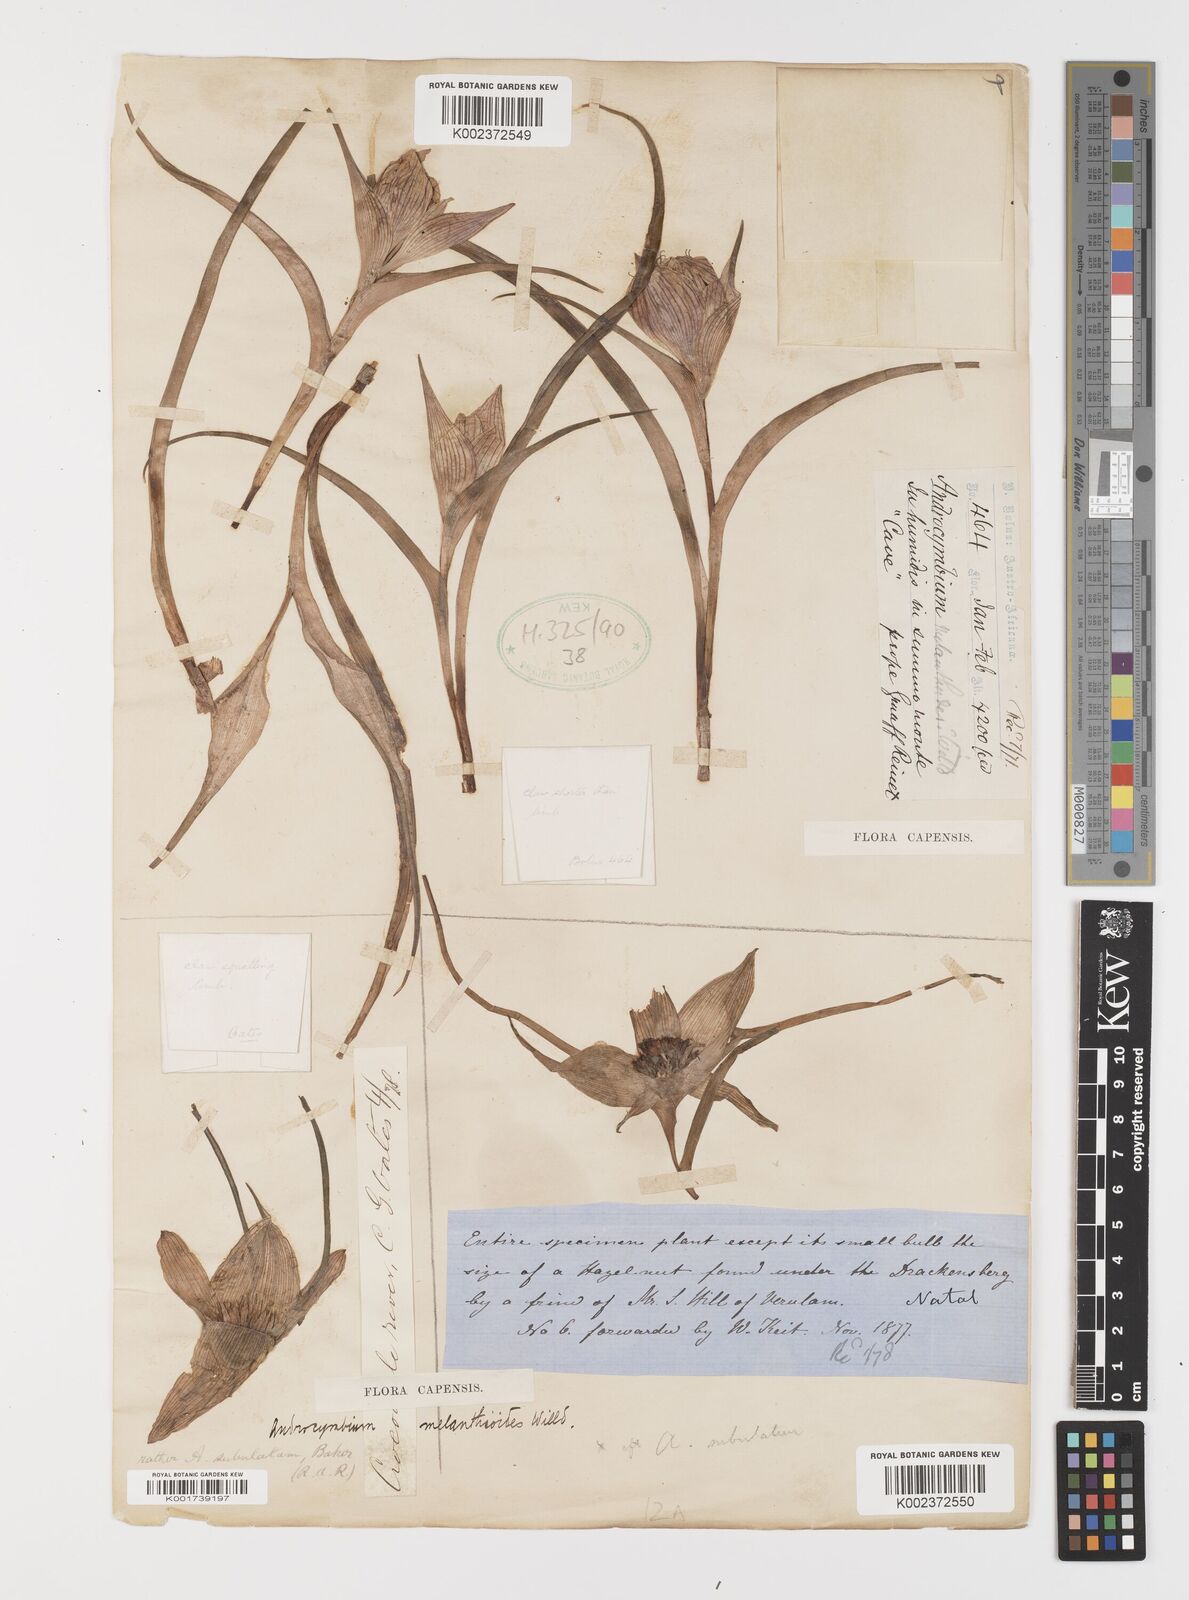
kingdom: Plantae
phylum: Tracheophyta
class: Liliopsida
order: Liliales
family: Colchicaceae
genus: Colchicum
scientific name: Colchicum melanthioides
